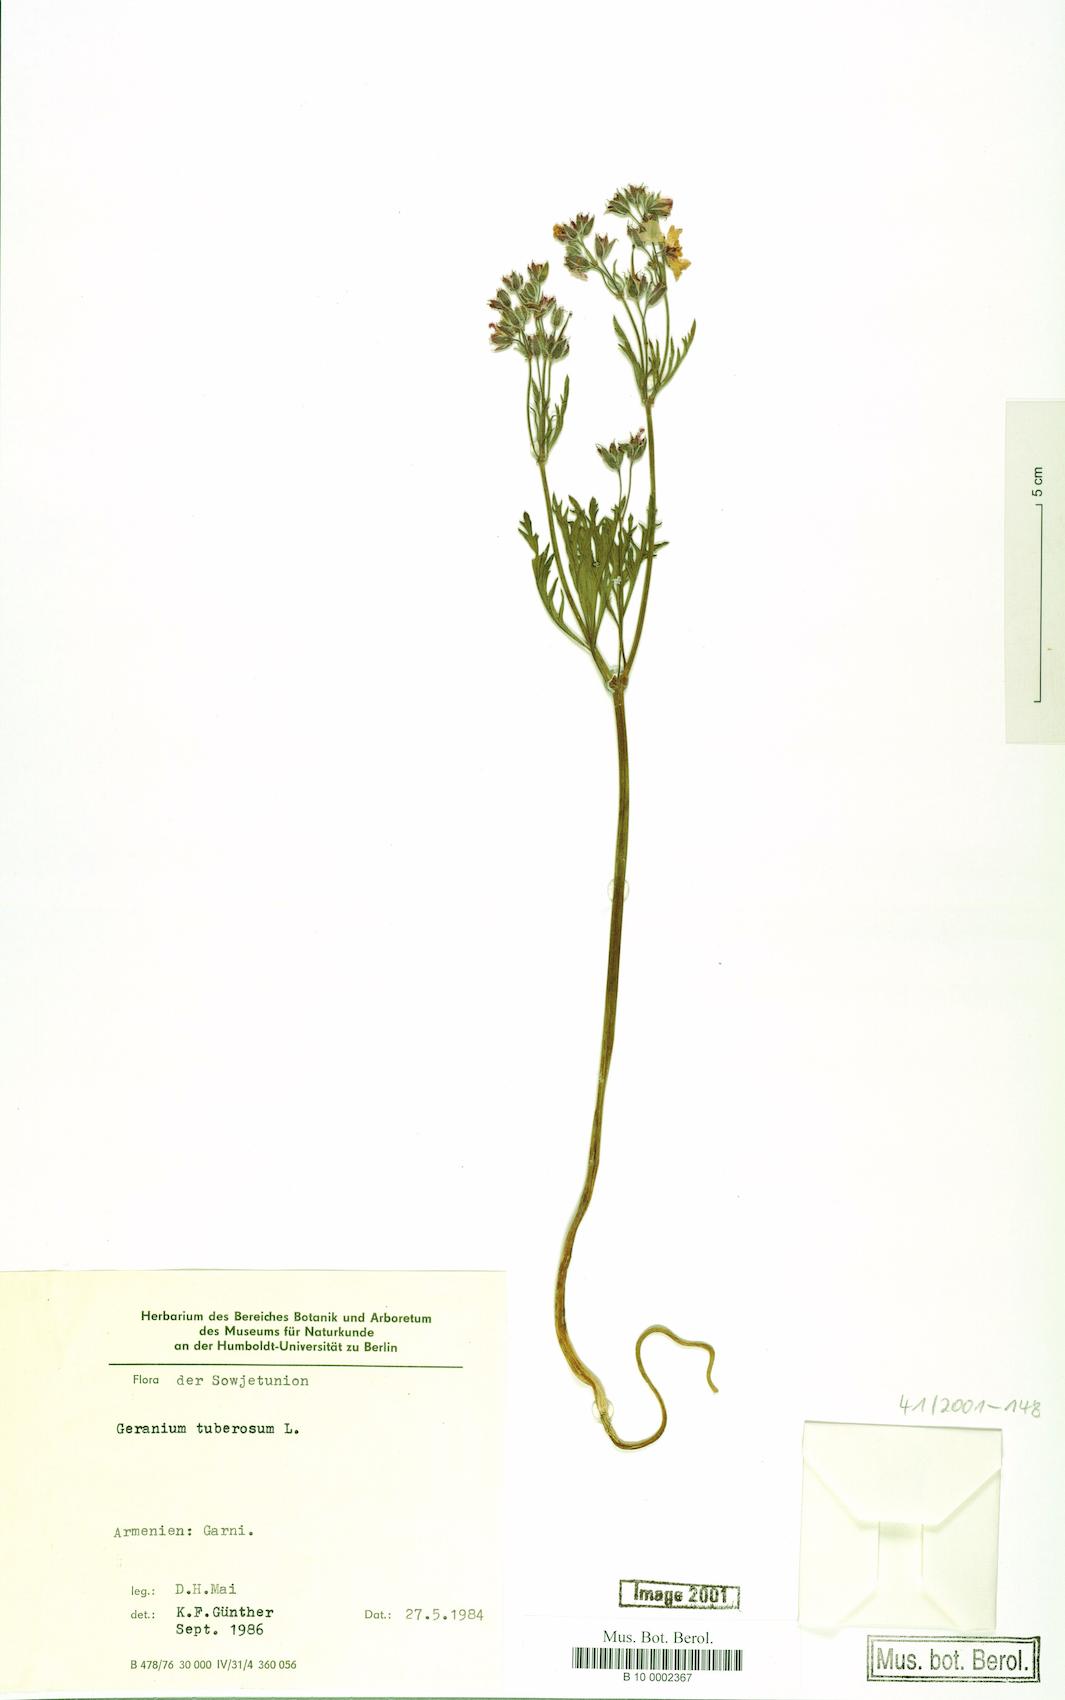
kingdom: Plantae
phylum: Tracheophyta
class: Magnoliopsida
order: Geraniales
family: Geraniaceae
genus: Geranium
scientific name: Geranium tuberosum
